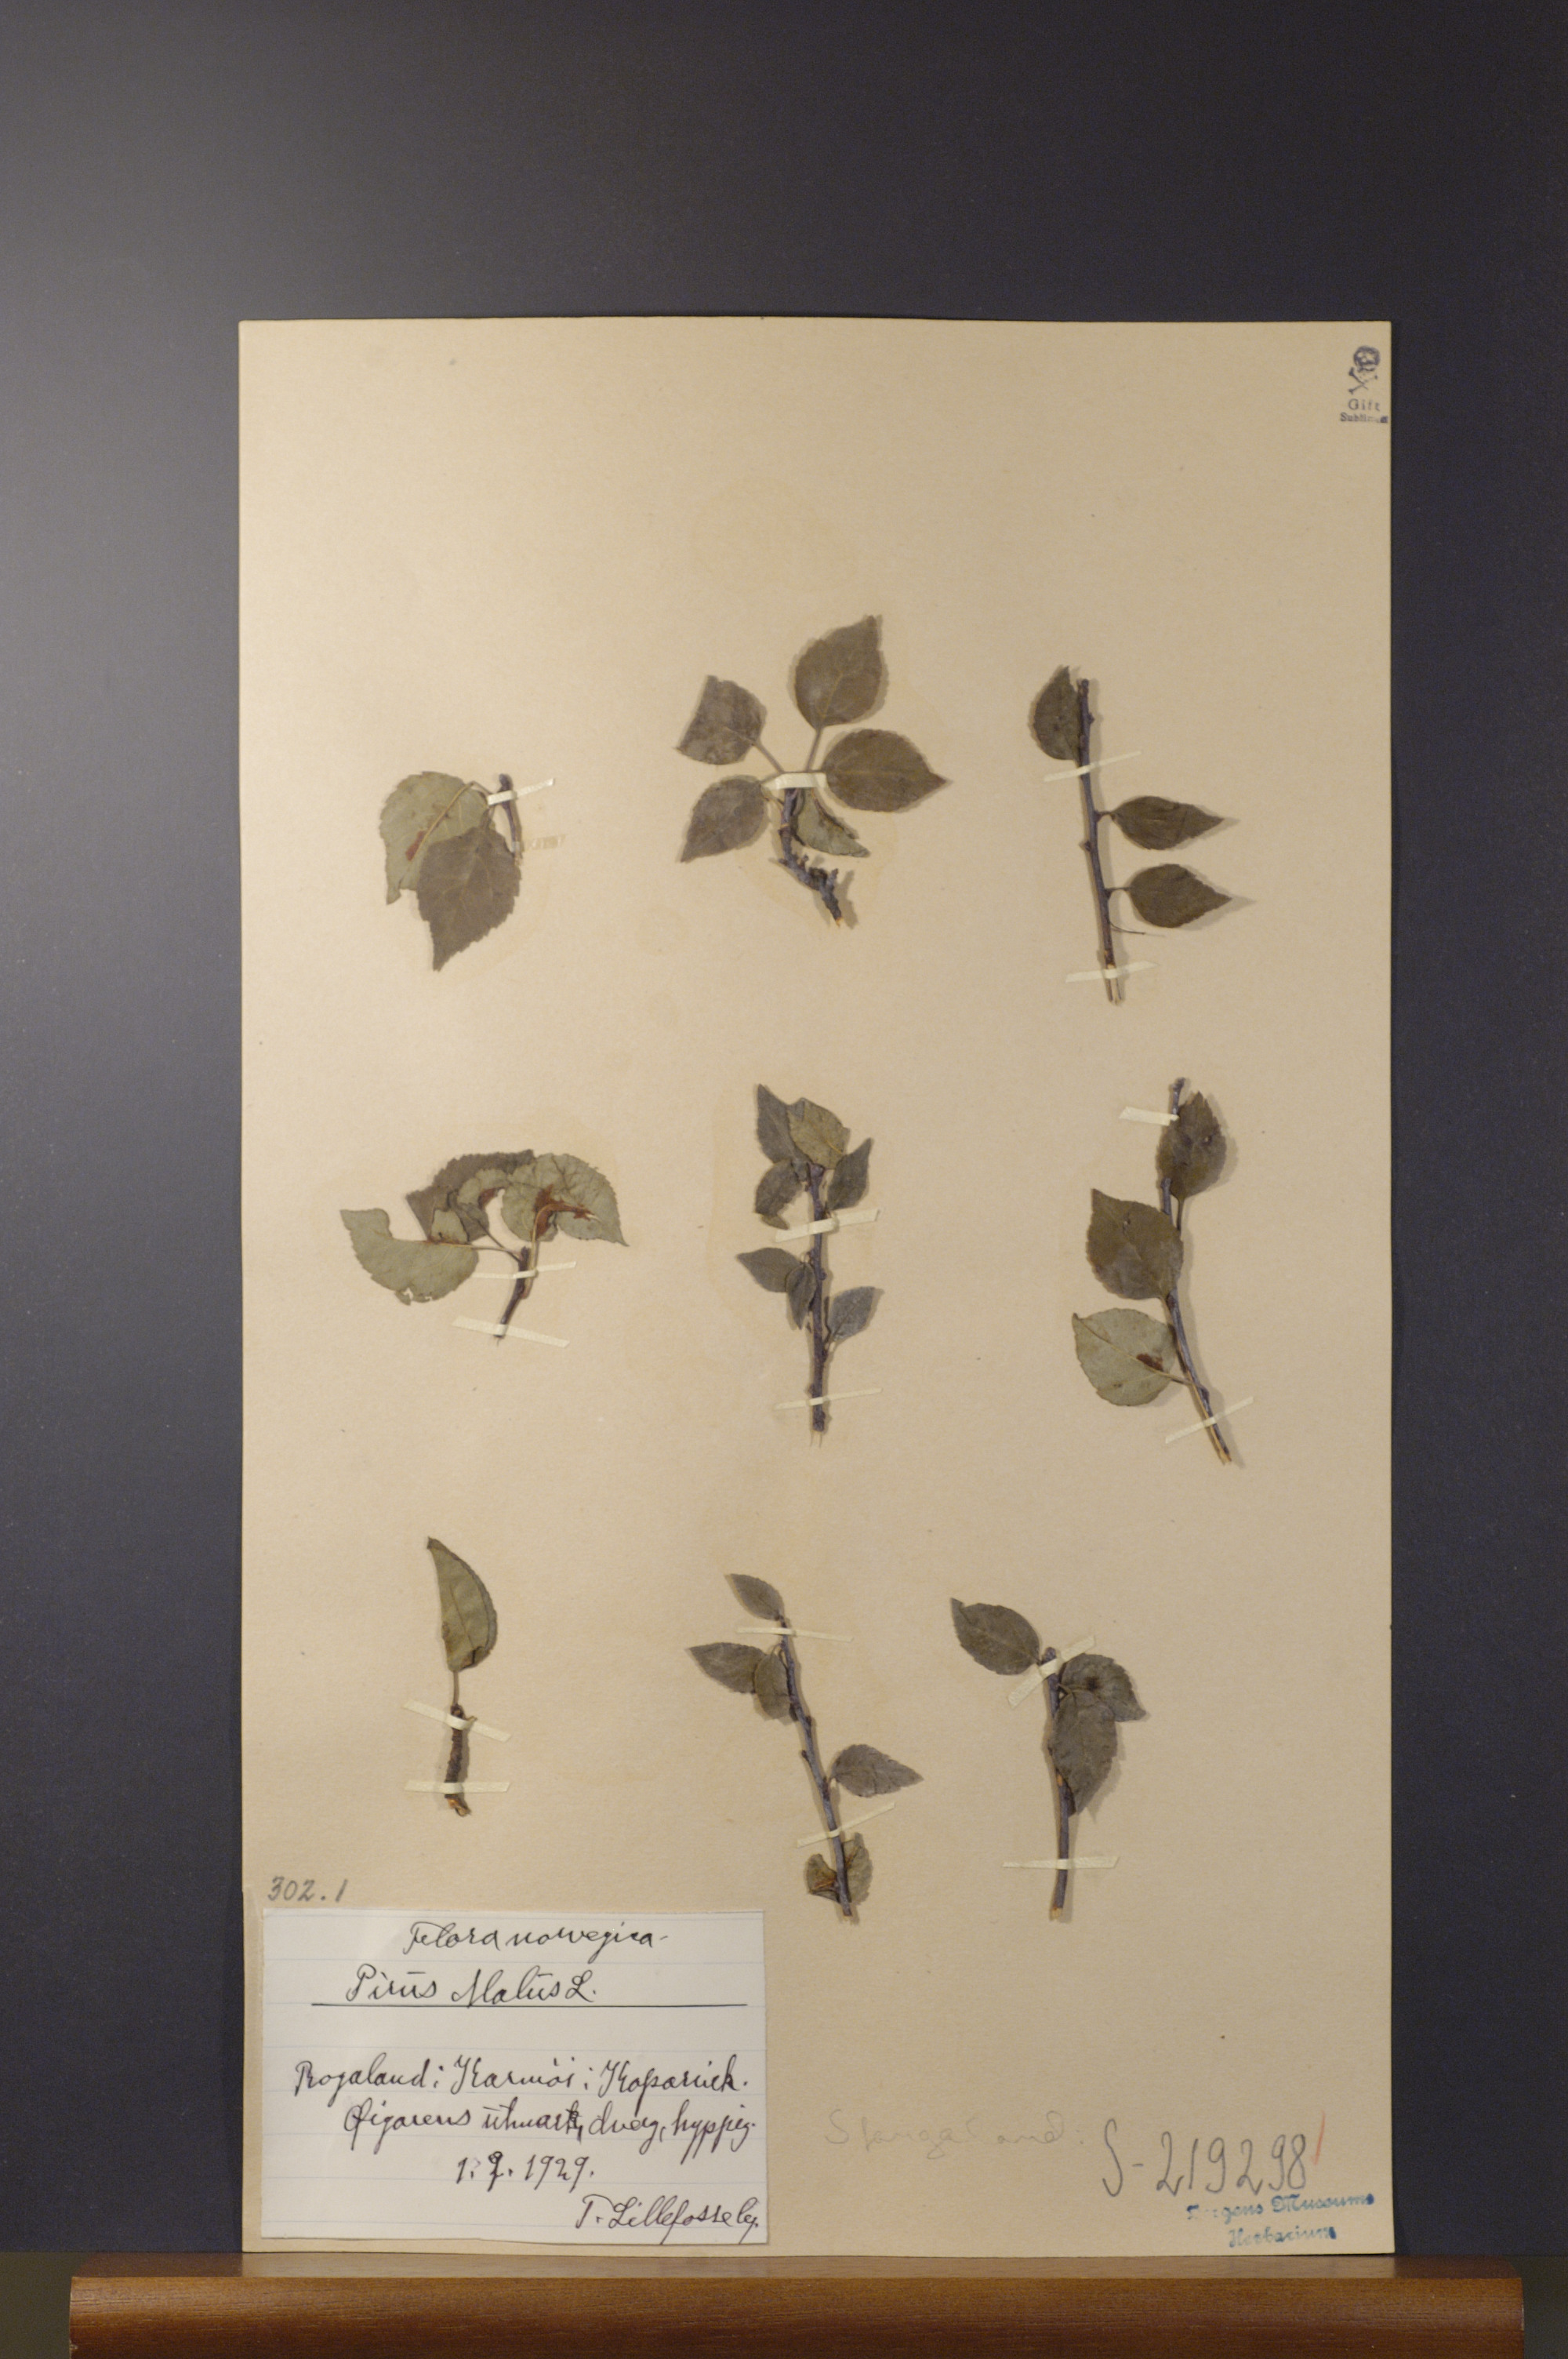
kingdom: Plantae
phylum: Tracheophyta
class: Magnoliopsida
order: Rosales
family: Rosaceae
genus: Malus
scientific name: Malus domestica
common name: Apple
